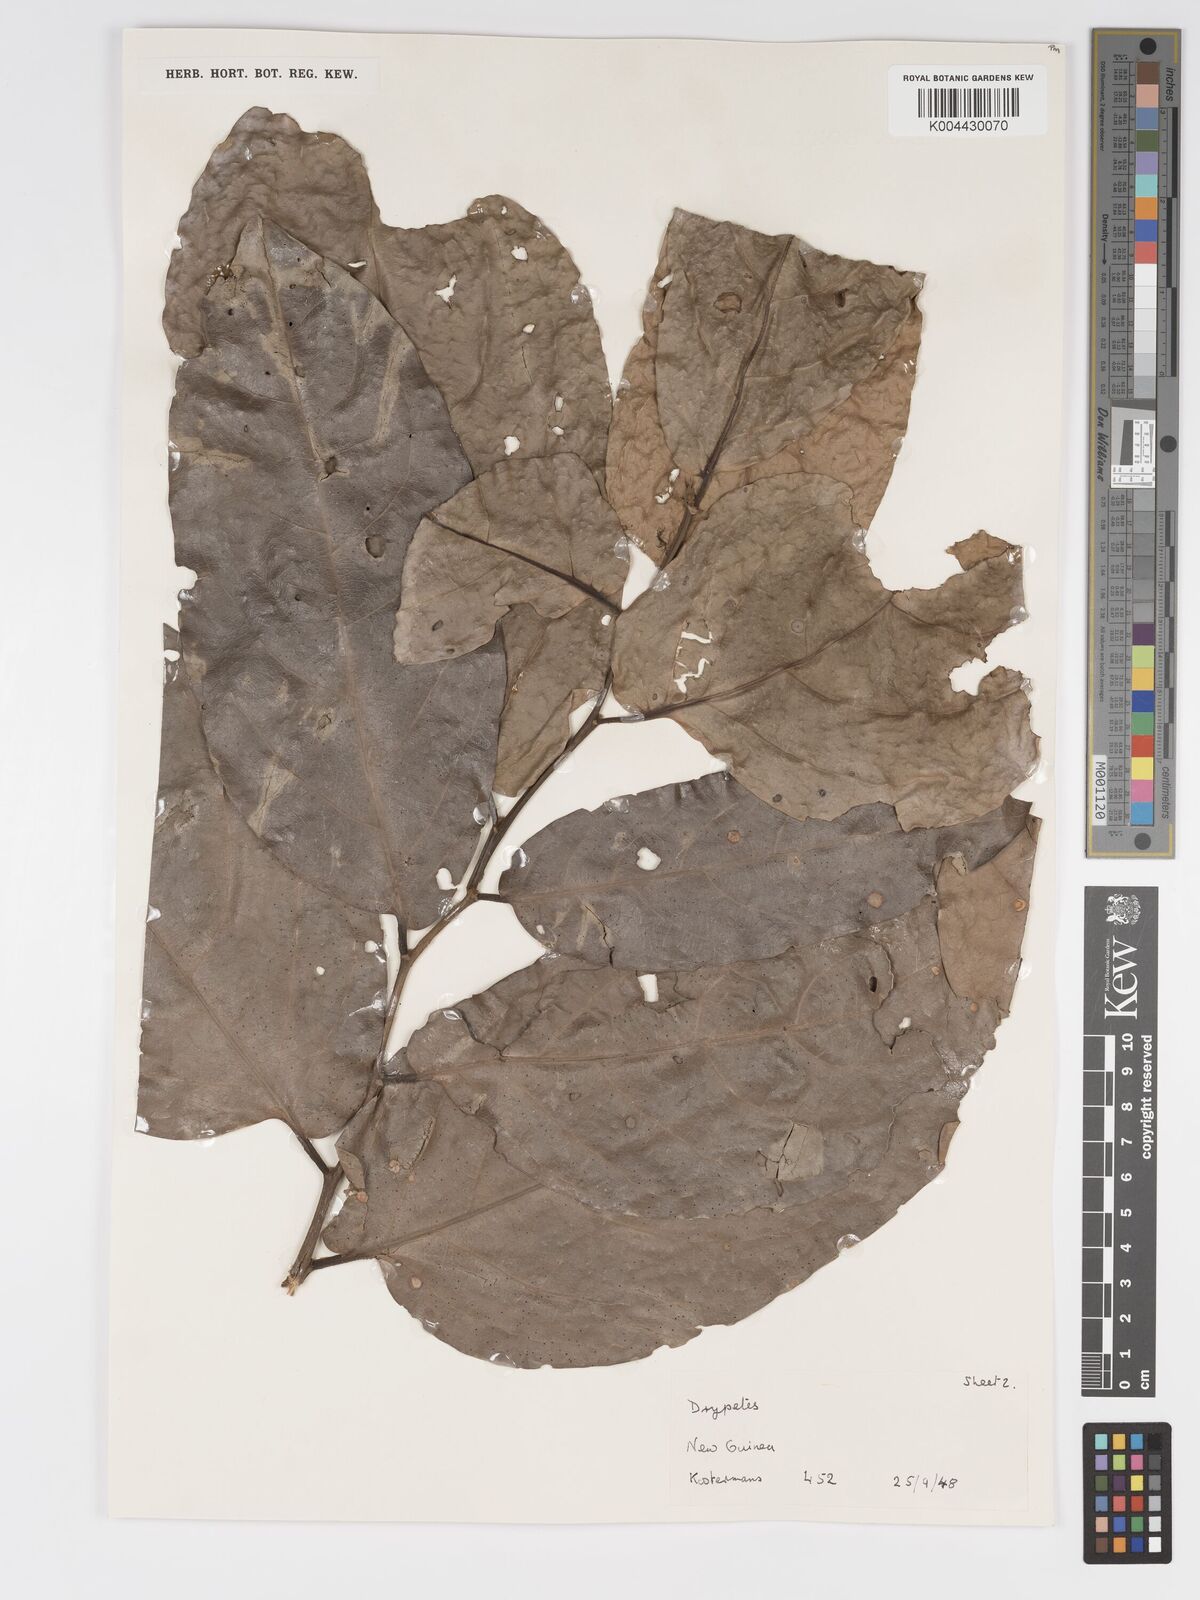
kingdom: Plantae
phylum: Tracheophyta
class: Magnoliopsida
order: Malpighiales
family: Putranjivaceae
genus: Drypetes
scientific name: Drypetes longifolia
